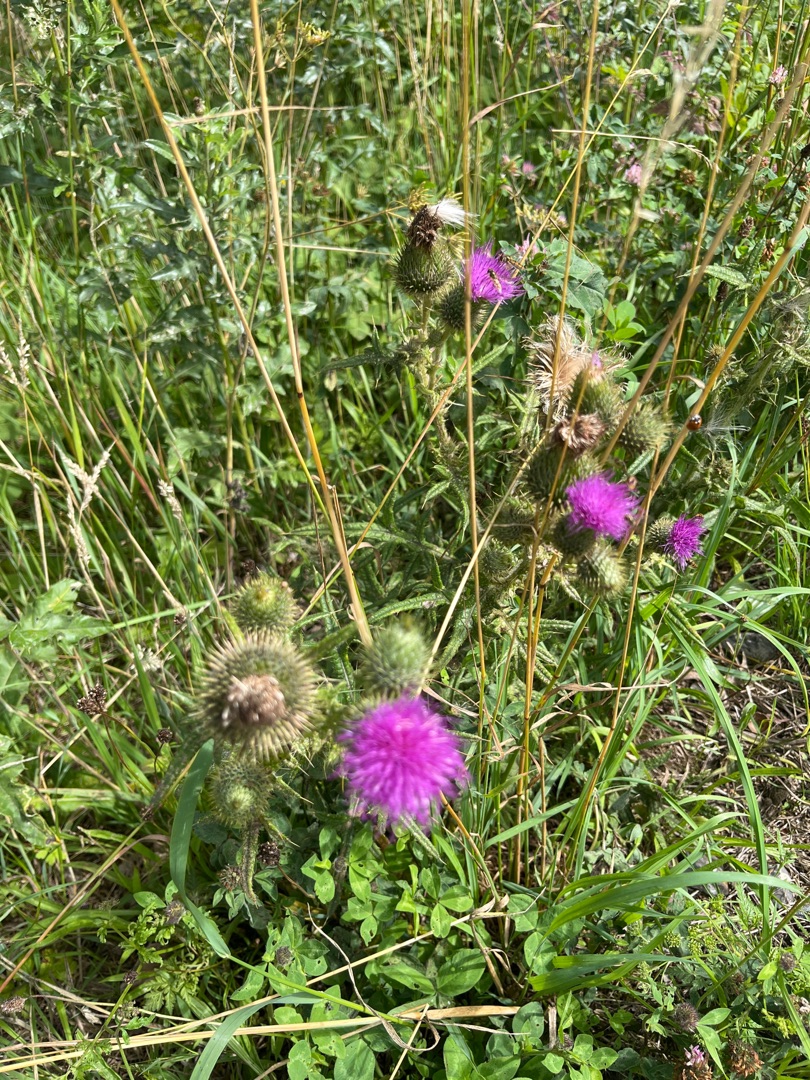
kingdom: Plantae
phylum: Tracheophyta
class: Magnoliopsida
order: Asterales
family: Asteraceae
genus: Cirsium
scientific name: Cirsium vulgare
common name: Horse-tidsel
